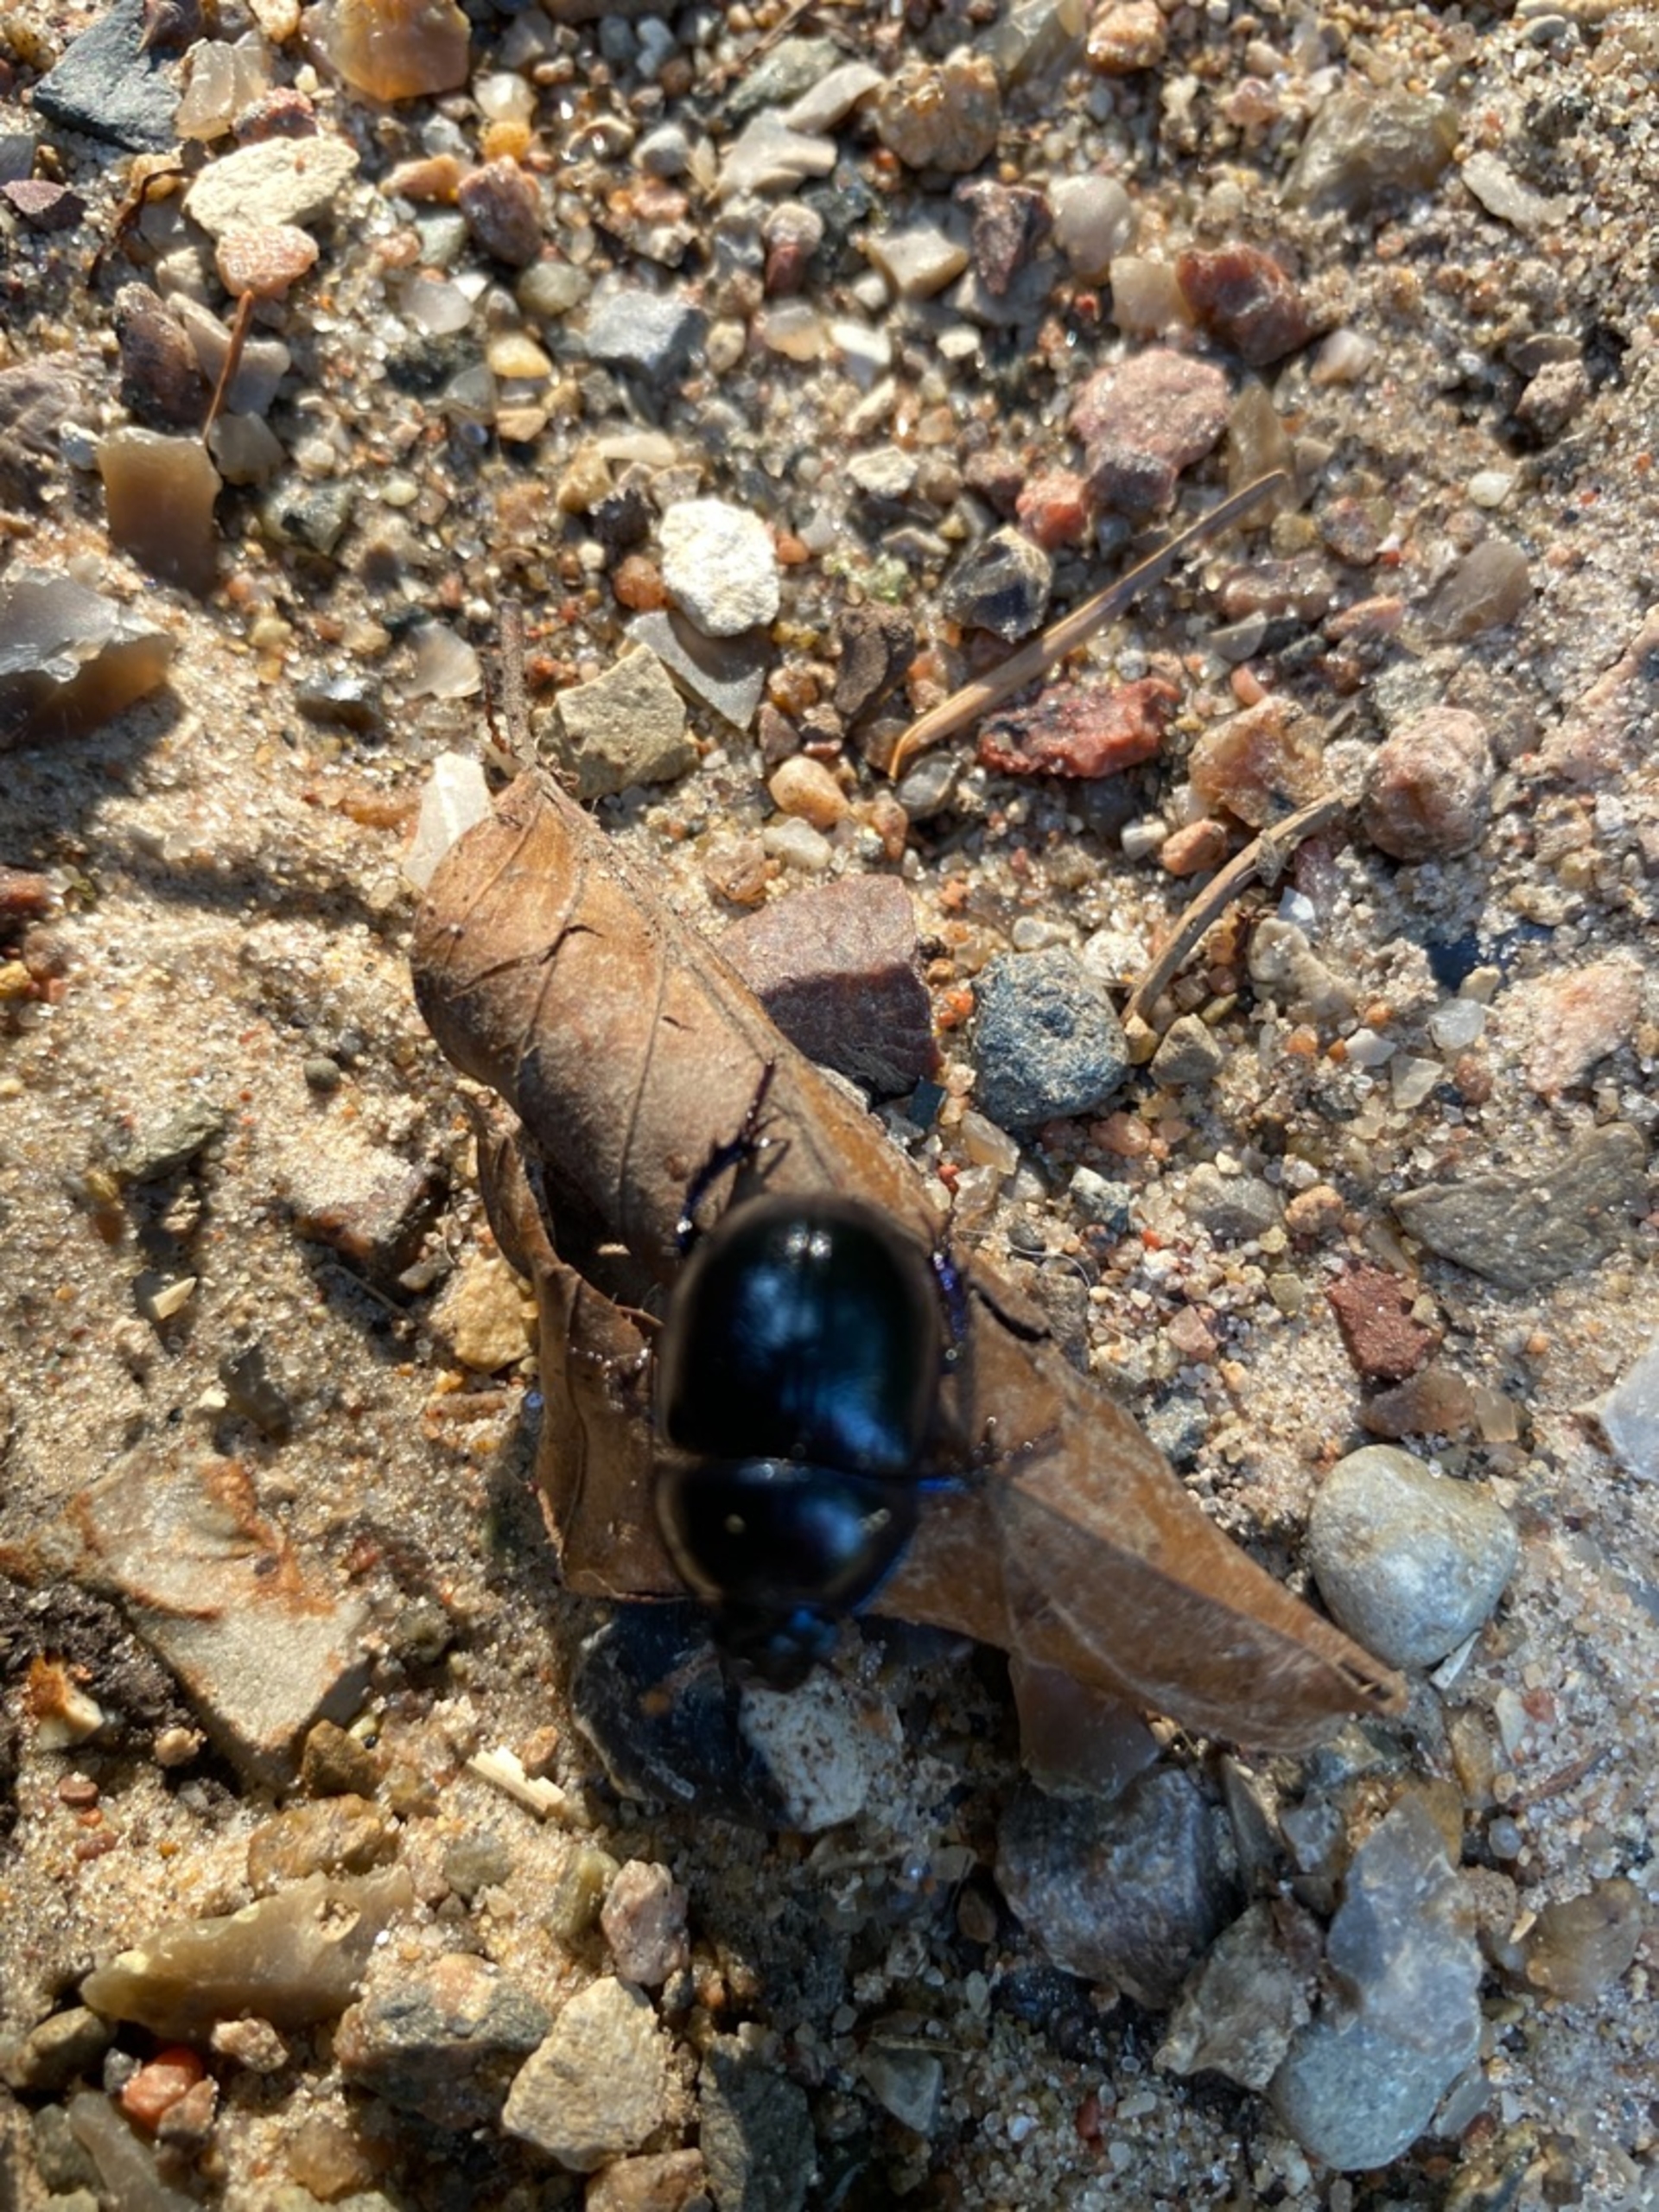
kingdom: Animalia
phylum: Arthropoda
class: Insecta
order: Coleoptera
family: Geotrupidae
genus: Anoplotrupes
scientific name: Anoplotrupes stercorosus
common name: Skovskarnbasse
